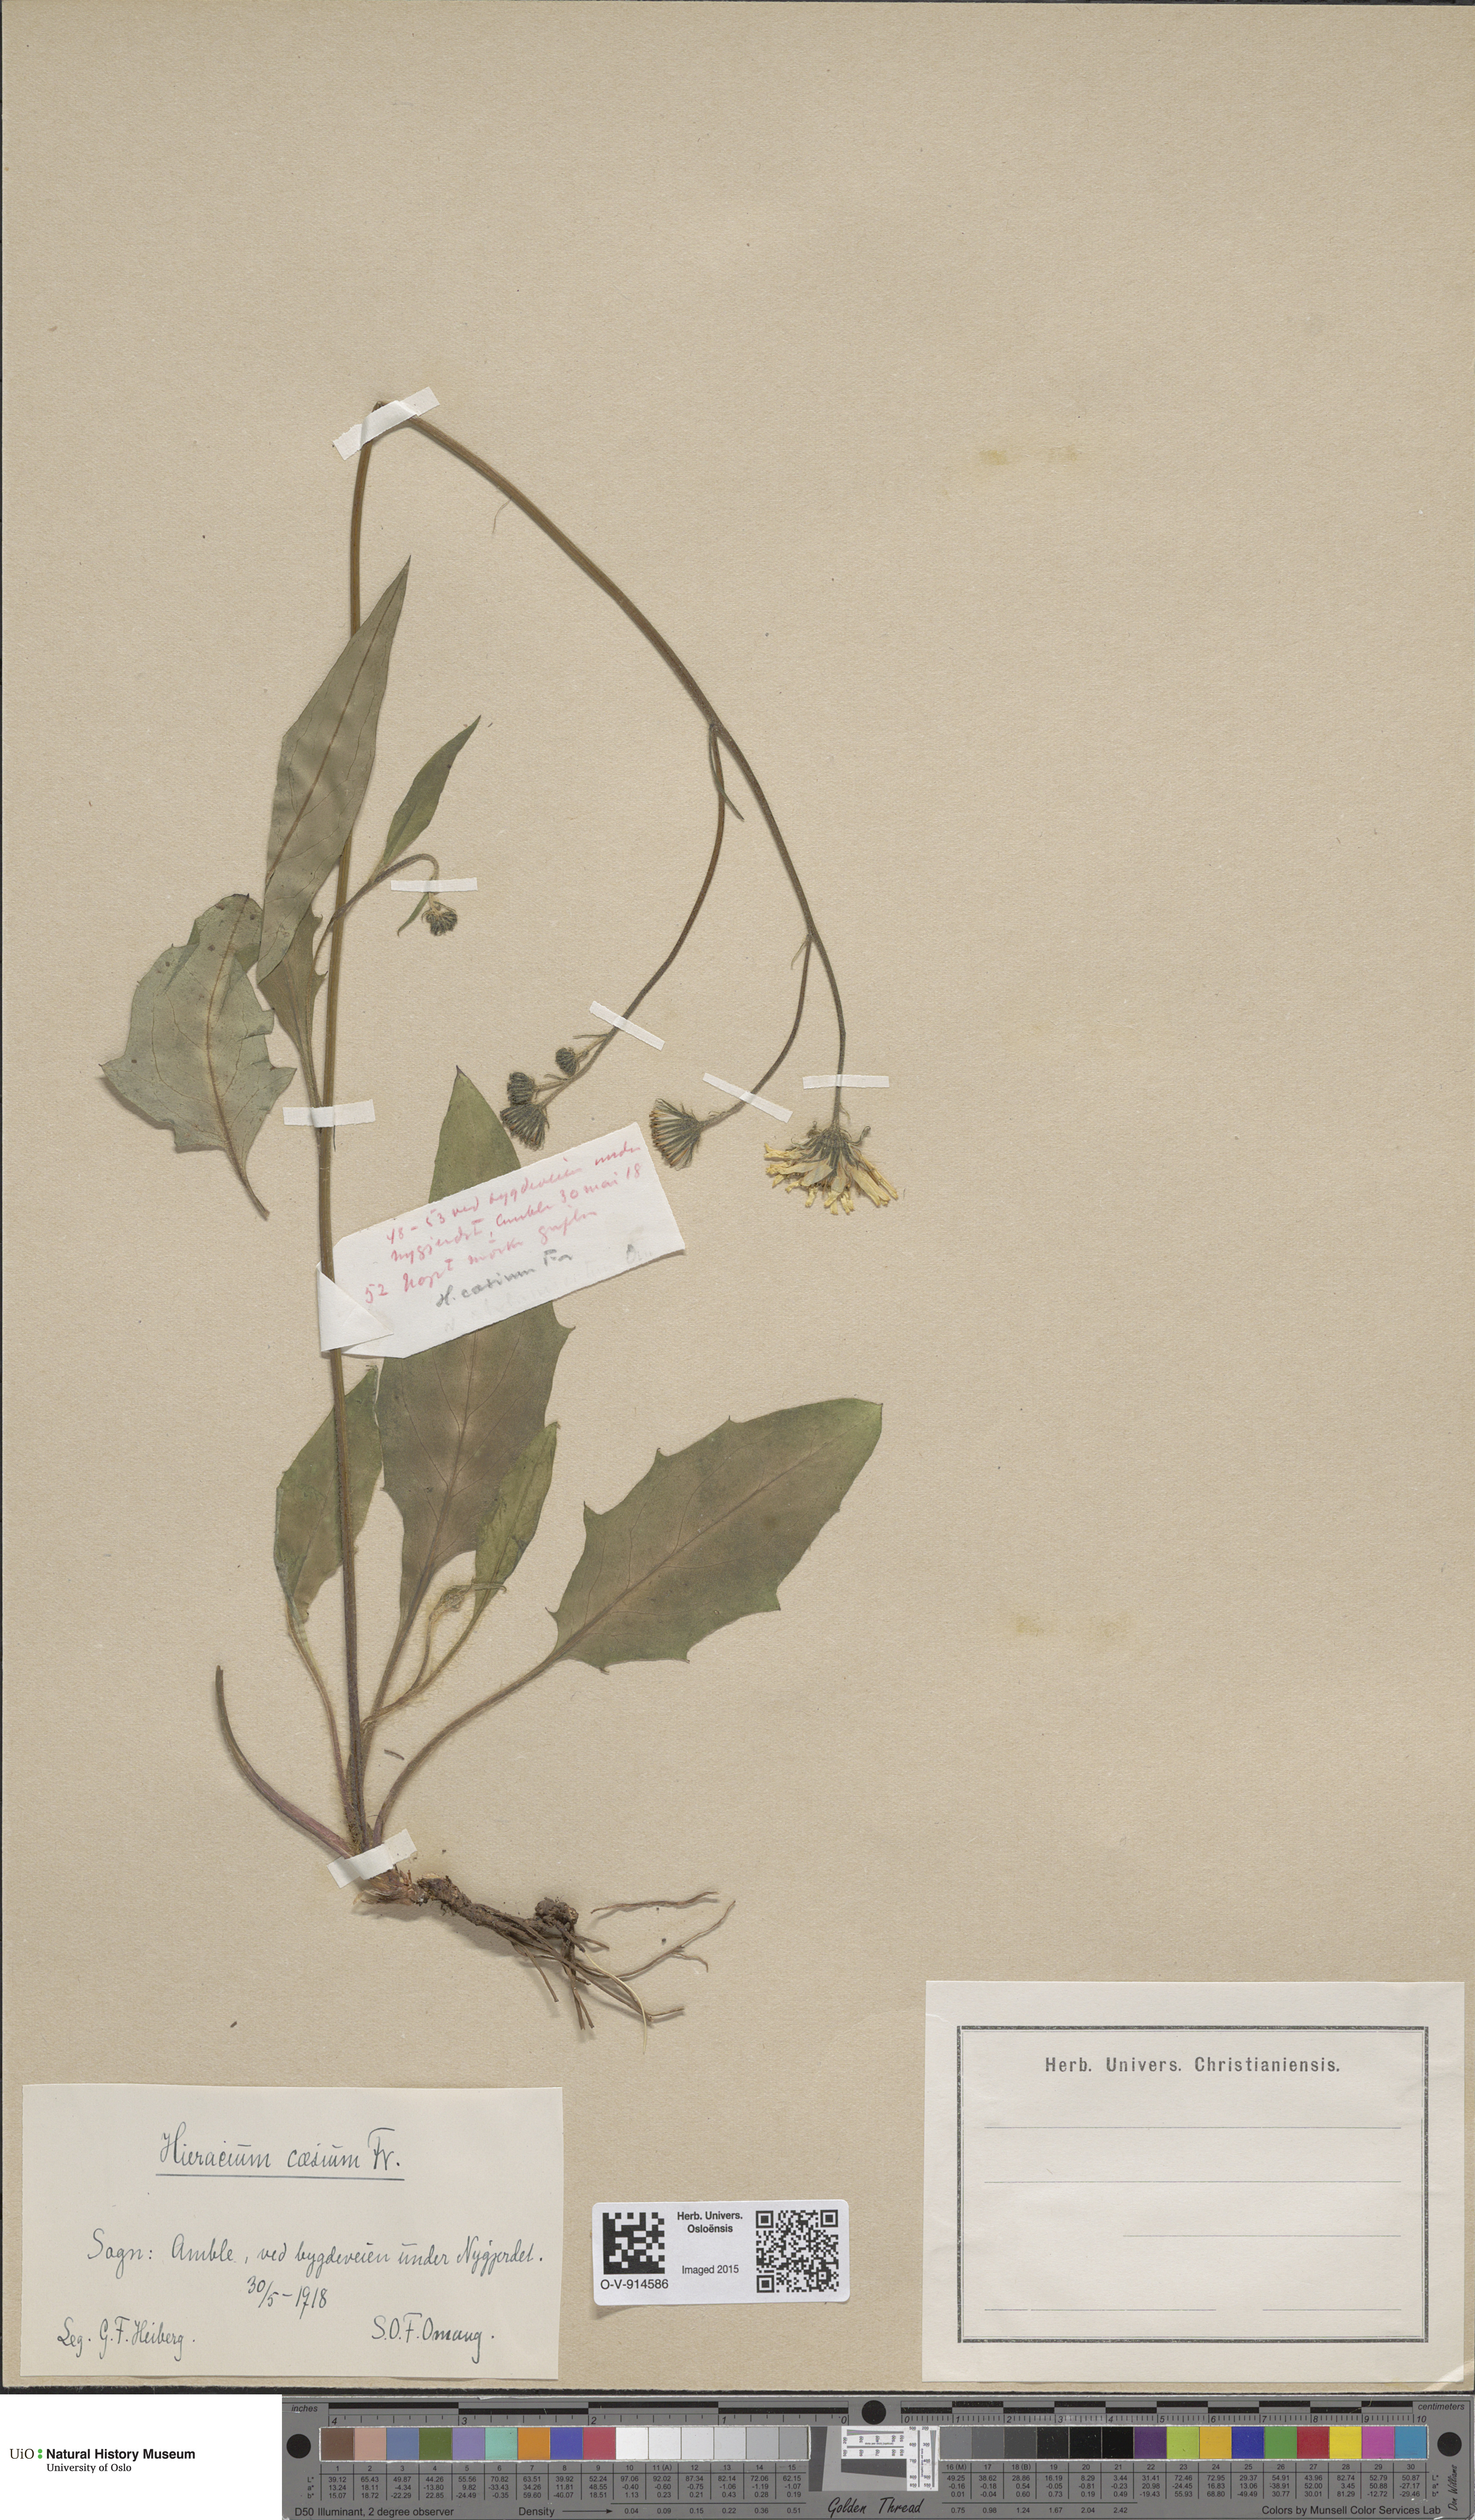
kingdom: Plantae
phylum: Tracheophyta
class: Magnoliopsida
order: Asterales
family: Asteraceae
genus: Hieracium
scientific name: Hieracium caesium
